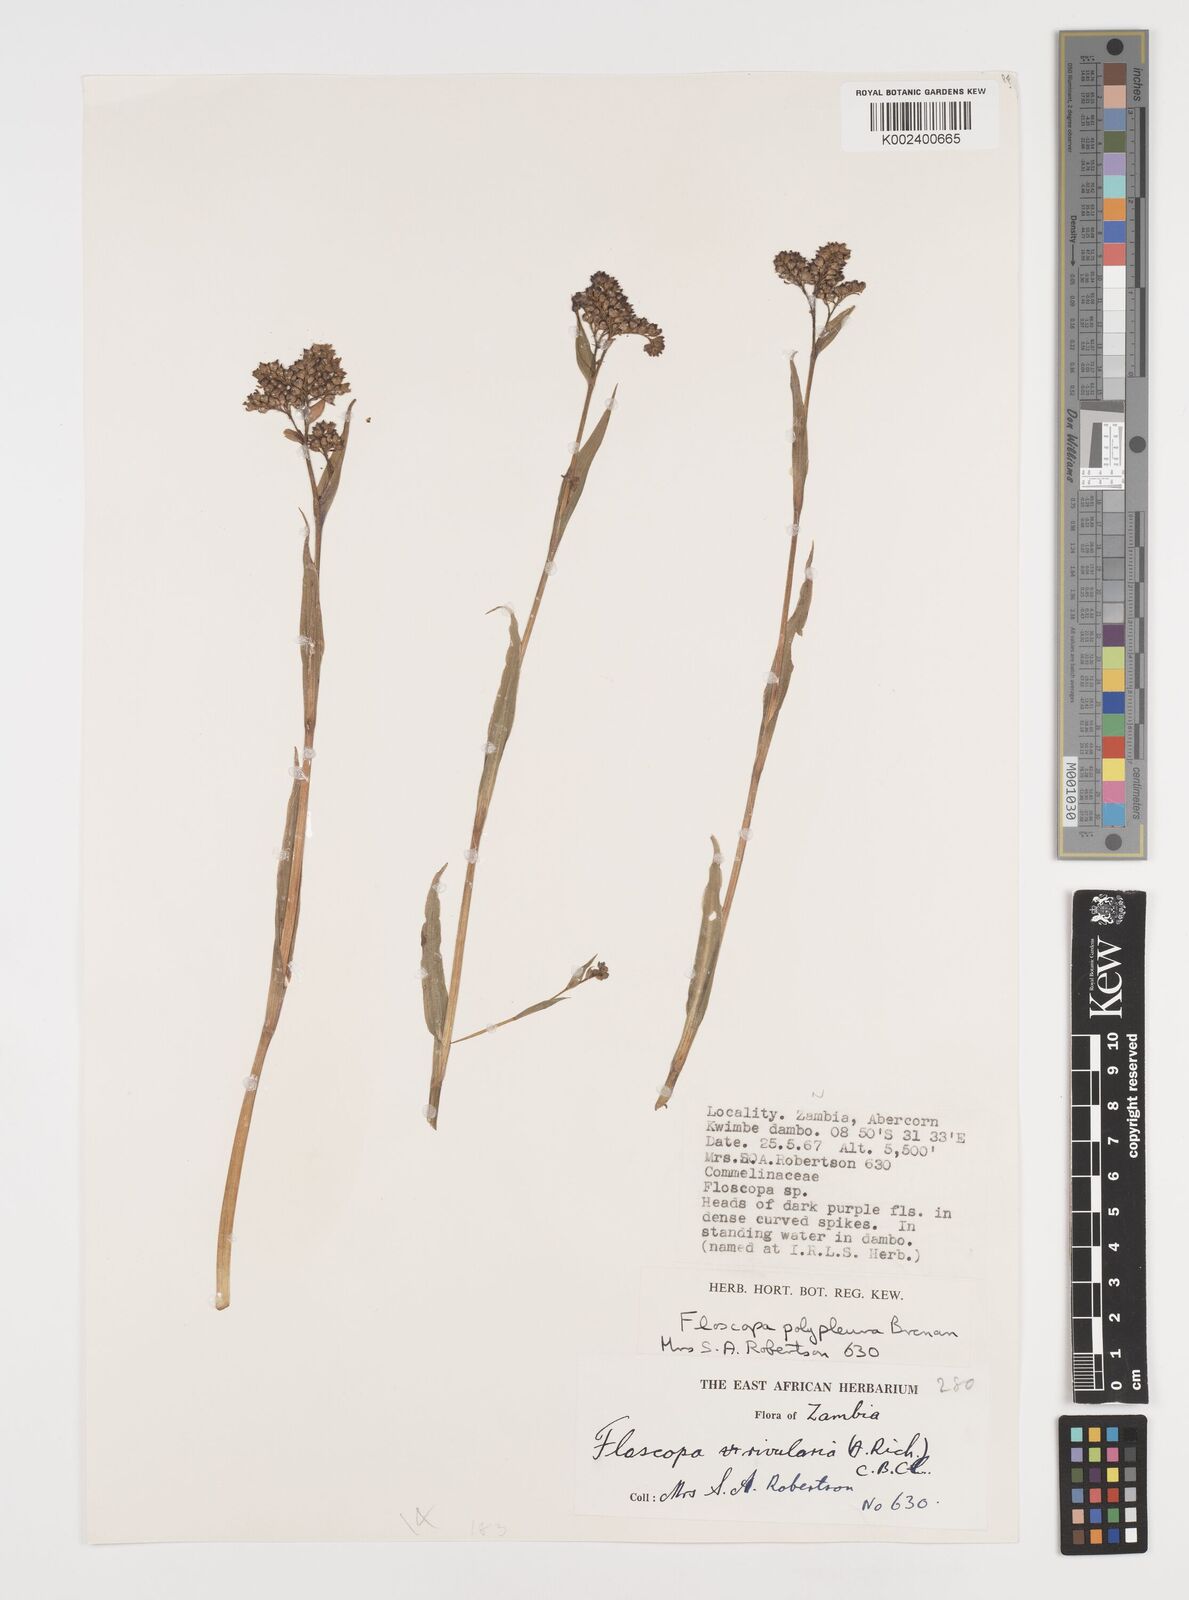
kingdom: Plantae
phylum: Tracheophyta
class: Liliopsida
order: Commelinales
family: Commelinaceae
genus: Floscopa
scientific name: Floscopa polypleura
